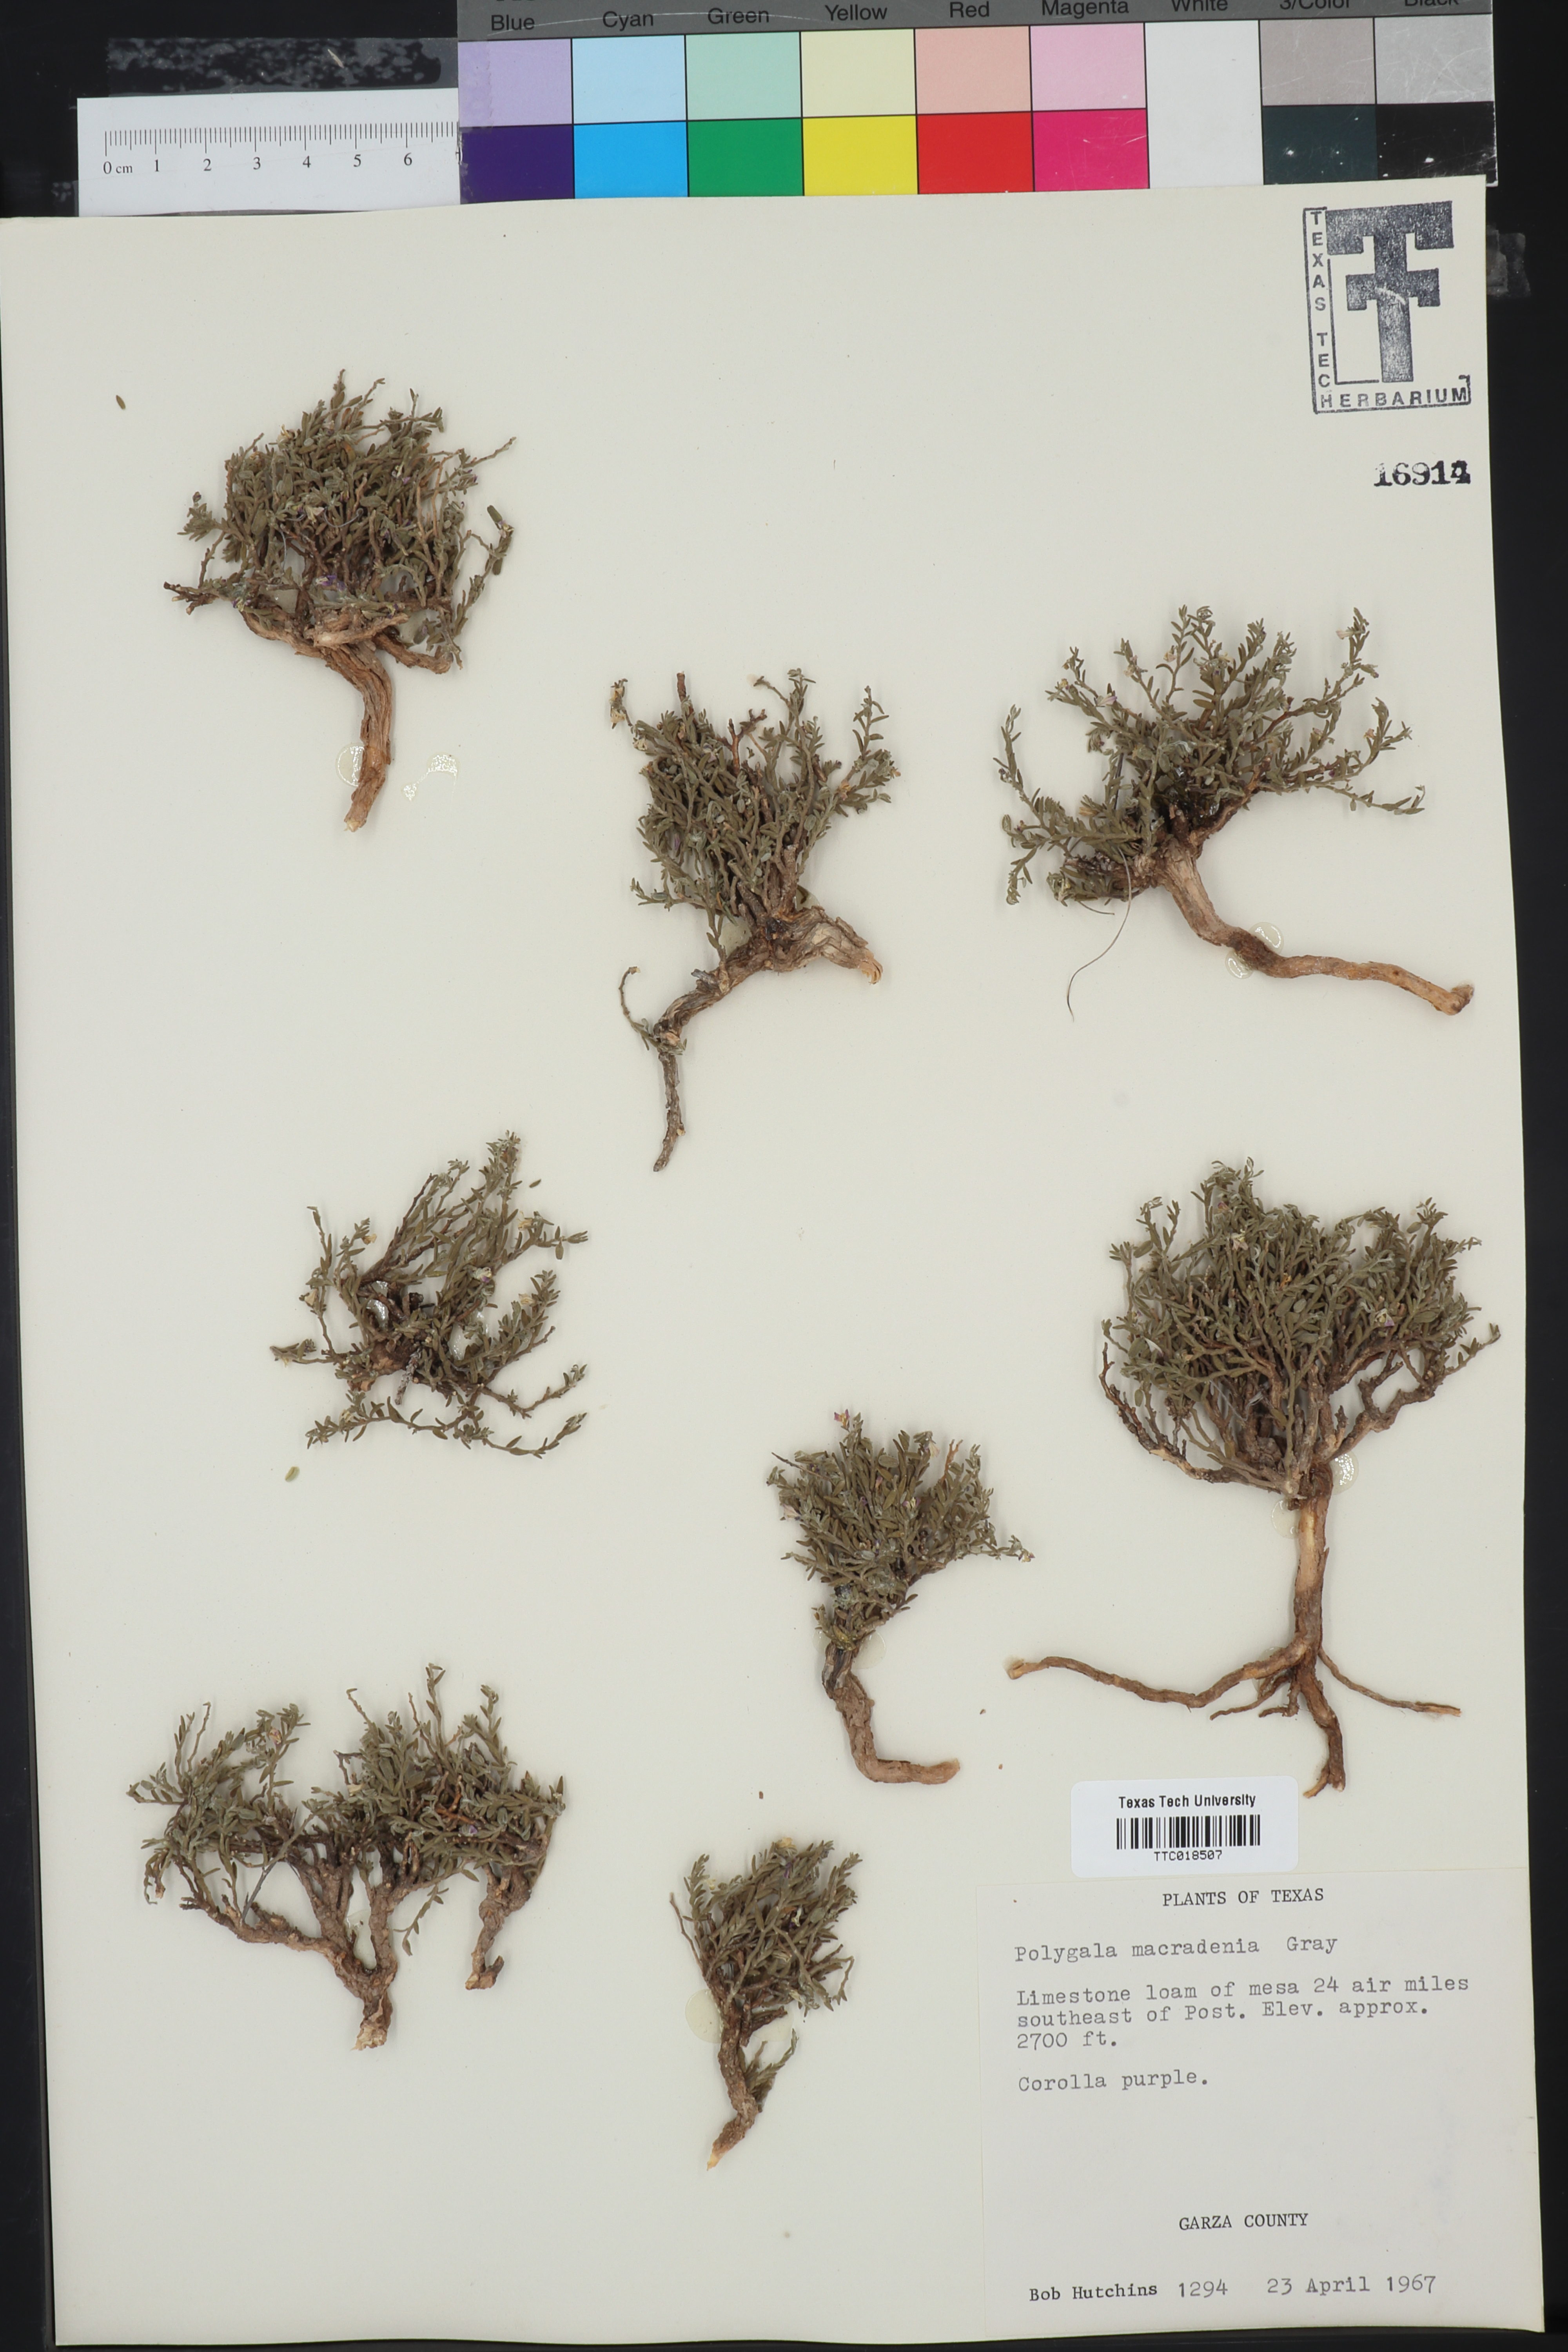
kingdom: Plantae
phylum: Tracheophyta
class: Magnoliopsida
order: Fabales
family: Polygalaceae
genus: Hebecarpa
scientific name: Hebecarpa macradenia
